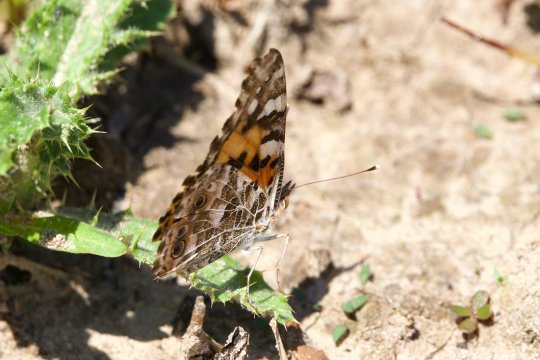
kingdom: Animalia
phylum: Arthropoda
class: Insecta
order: Lepidoptera
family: Nymphalidae
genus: Vanessa
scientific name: Vanessa cardui
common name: Painted Lady
